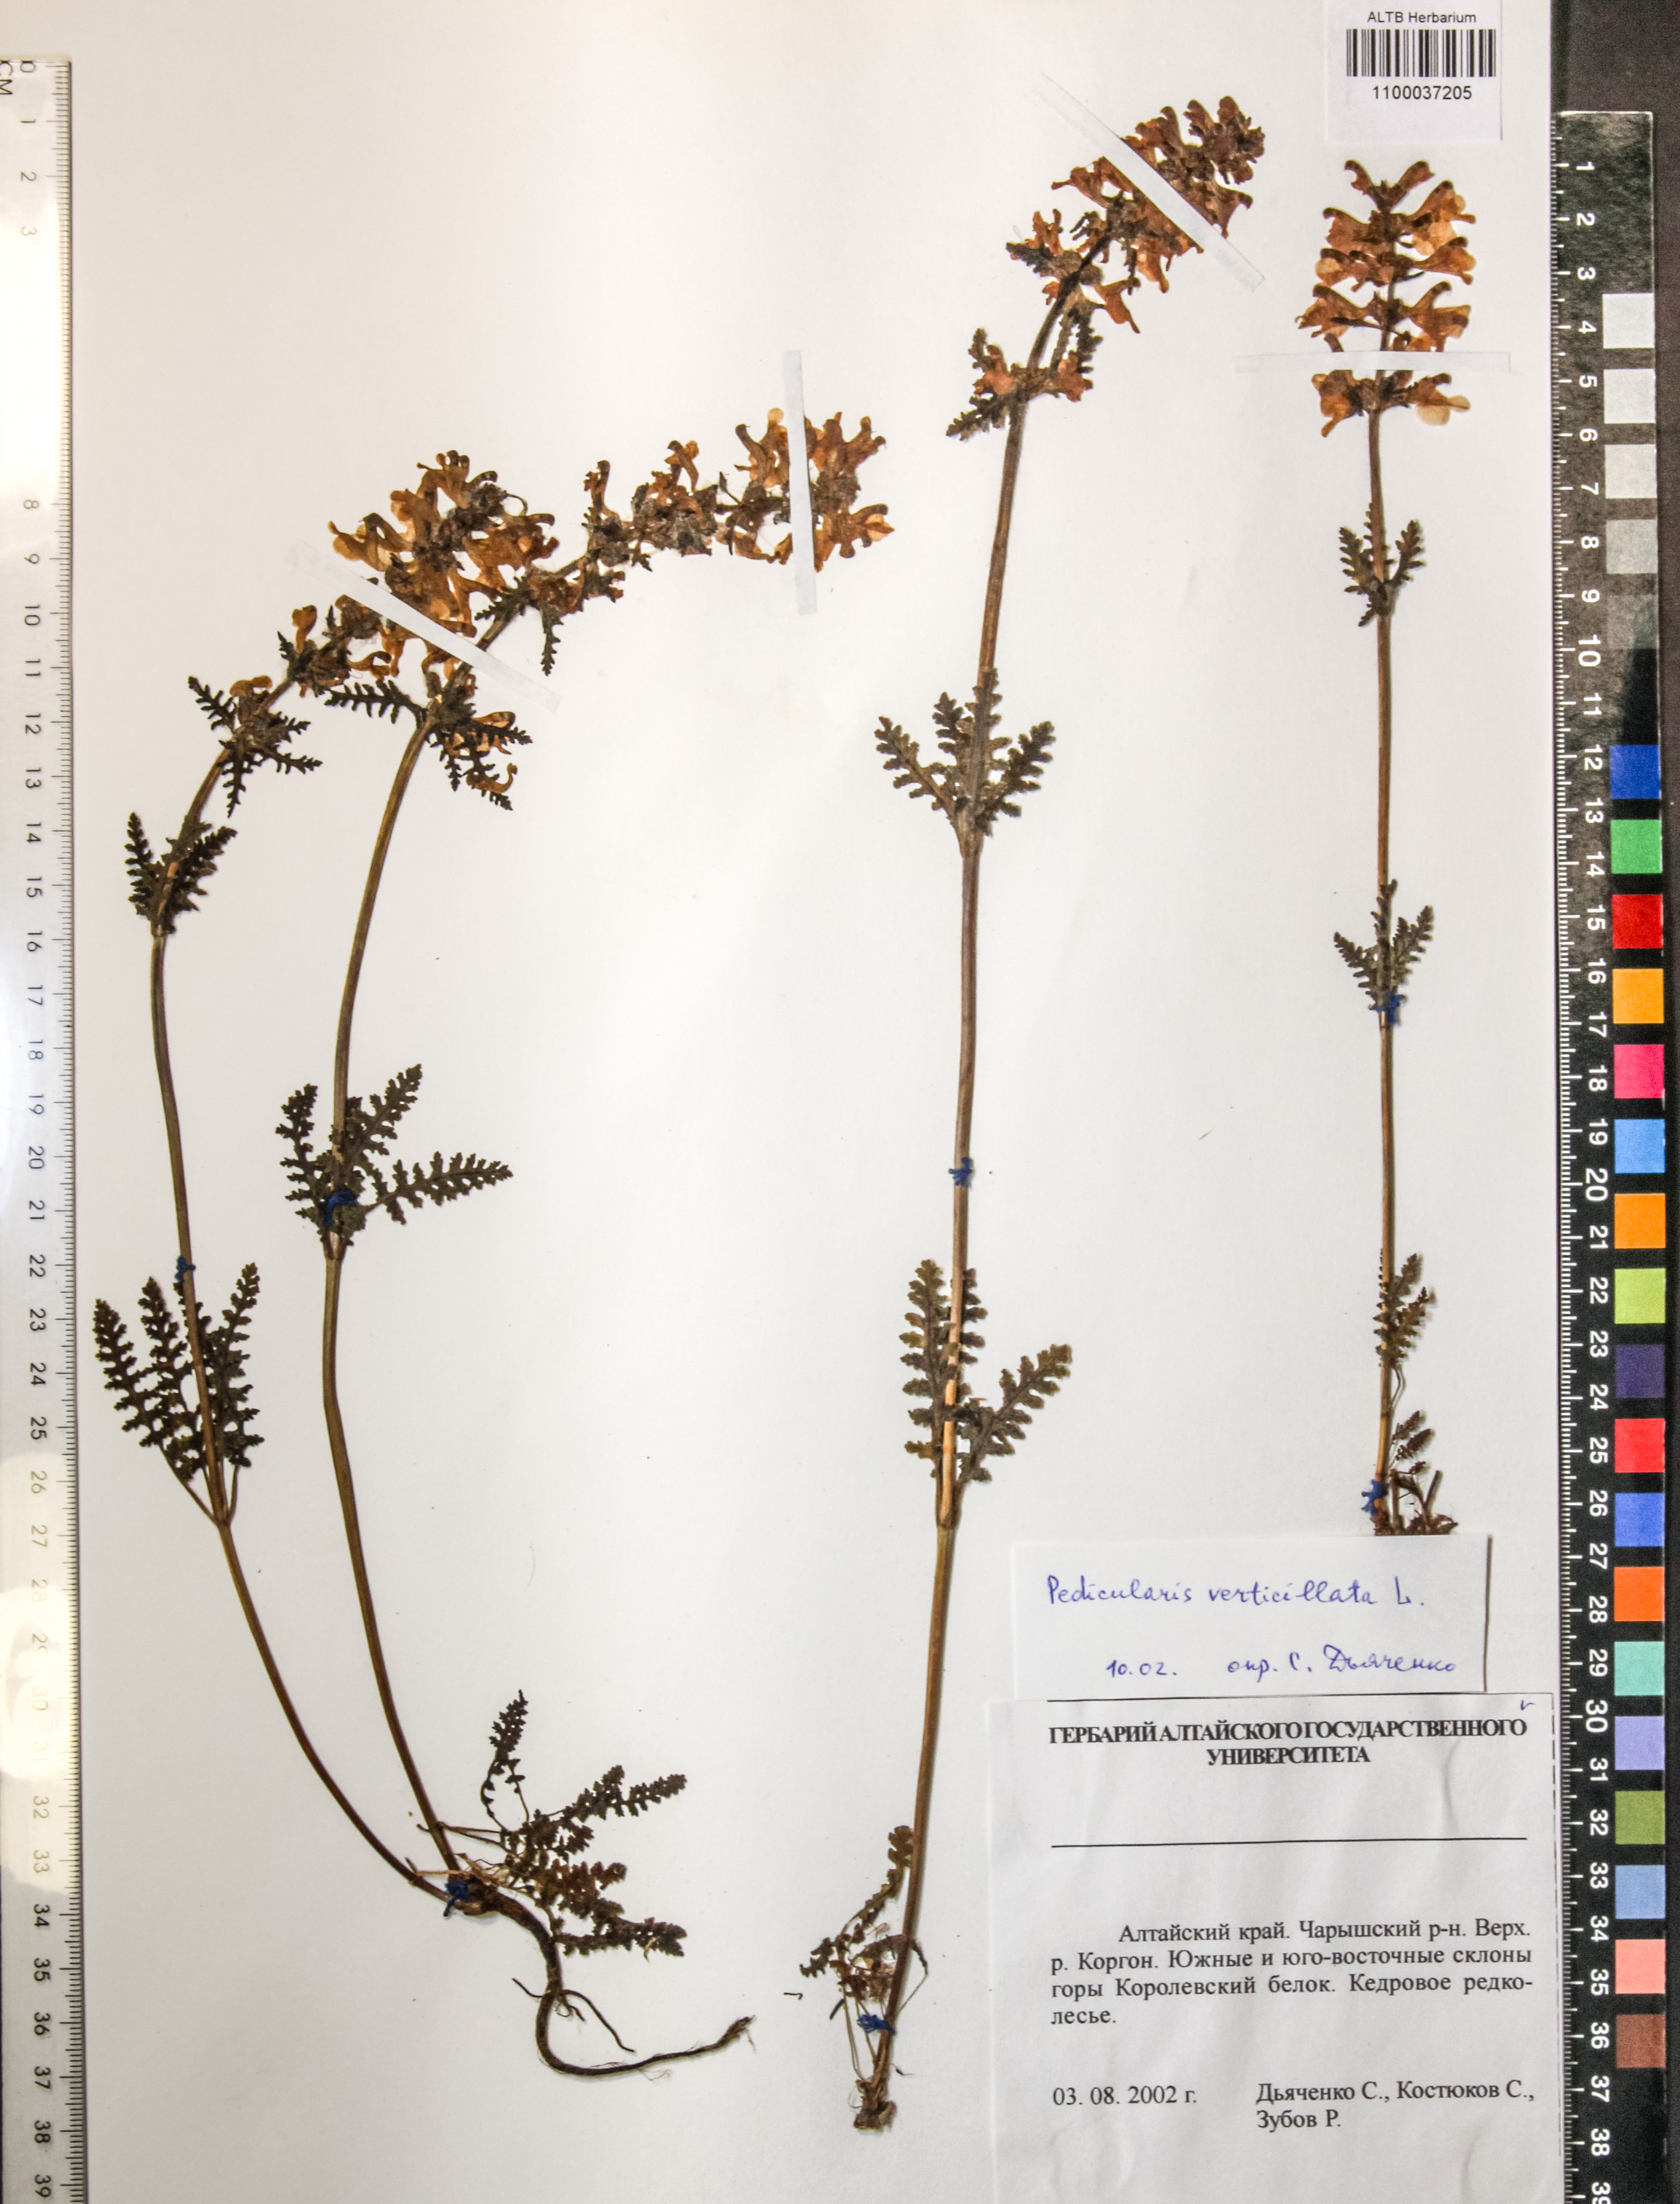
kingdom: Plantae
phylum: Tracheophyta
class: Magnoliopsida
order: Lamiales
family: Orobanchaceae
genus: Pedicularis
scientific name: Pedicularis verticillata
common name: Whorled lousewort
